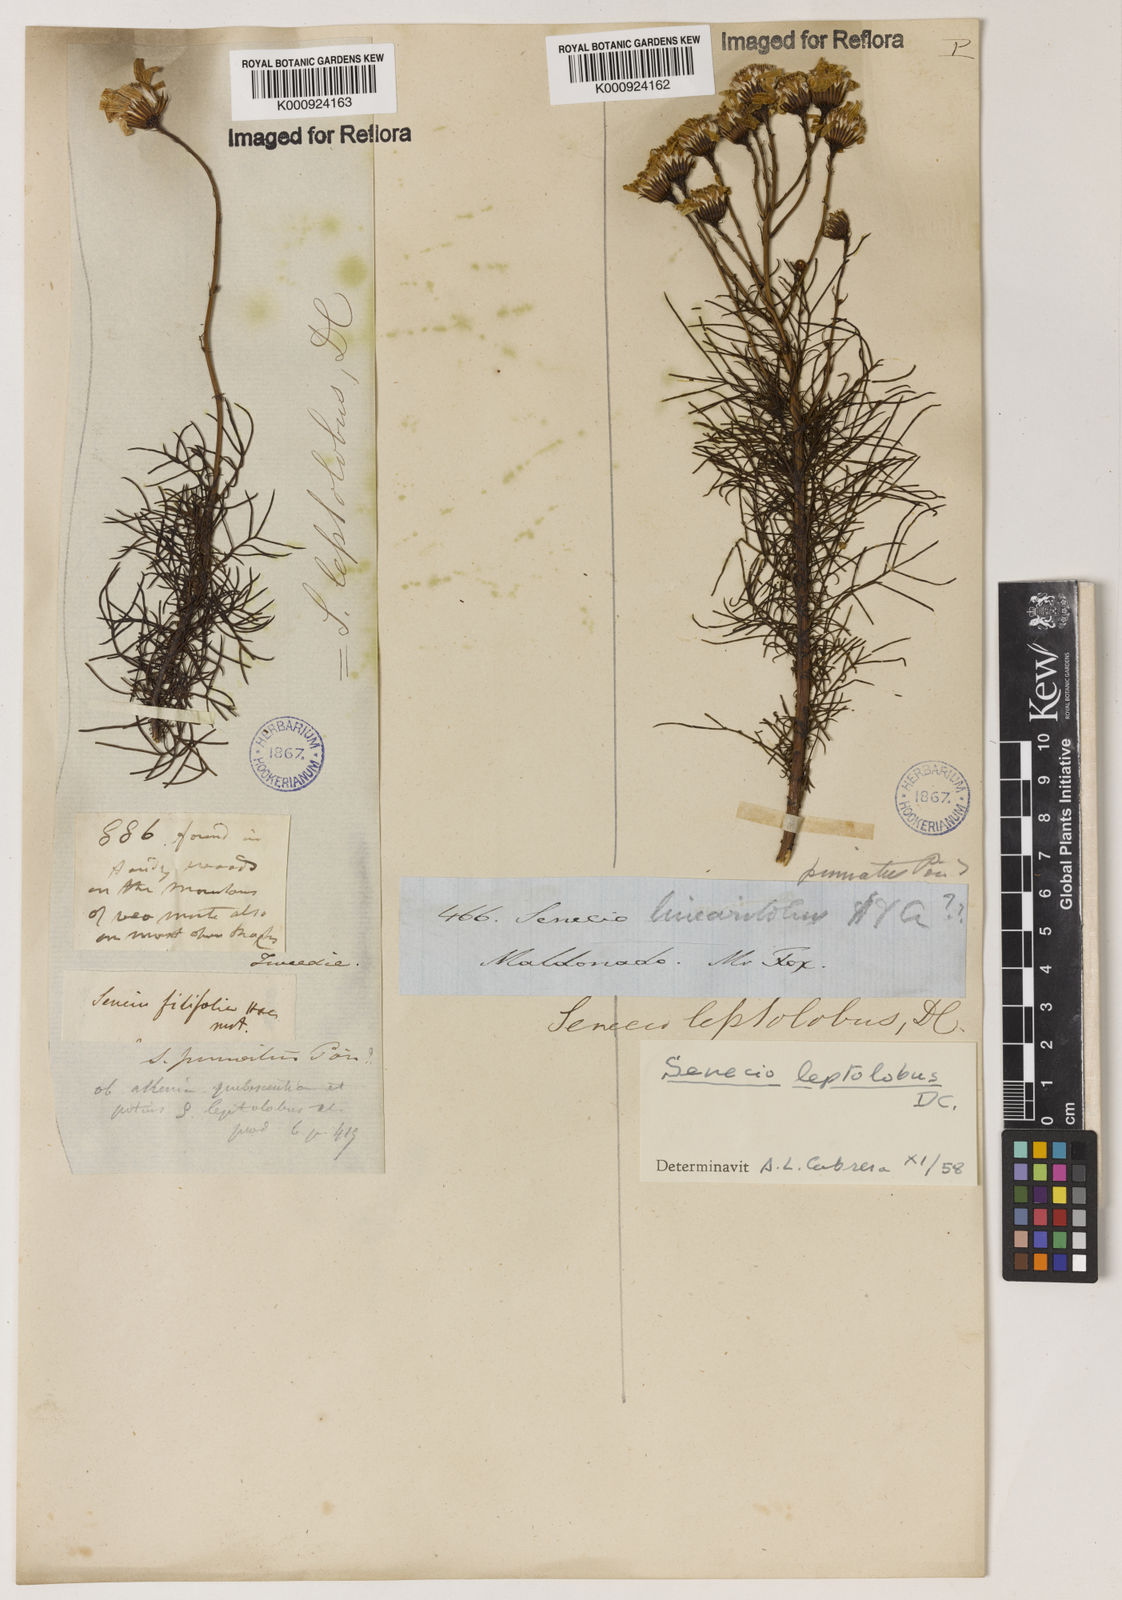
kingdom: Plantae
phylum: Tracheophyta
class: Magnoliopsida
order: Asterales
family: Asteraceae
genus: Senecio
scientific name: Senecio leptolobus
